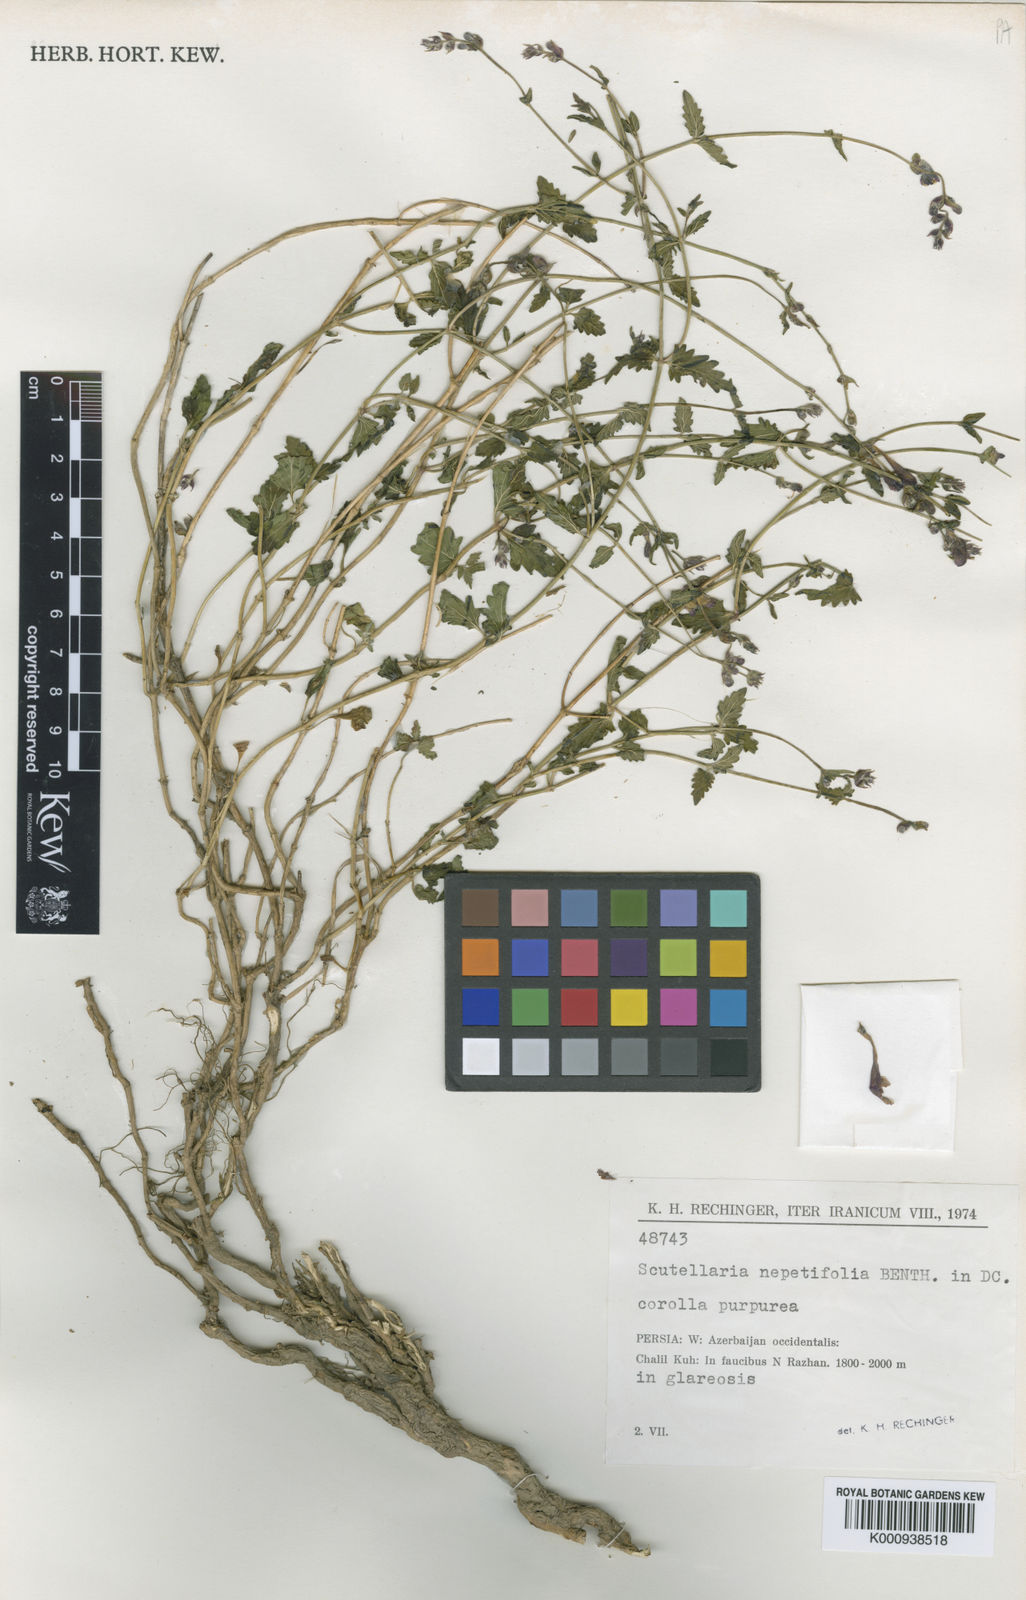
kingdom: Plantae
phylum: Tracheophyta
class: Magnoliopsida
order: Lamiales
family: Lamiaceae
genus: Scutellaria
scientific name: Scutellaria nepetifolia
